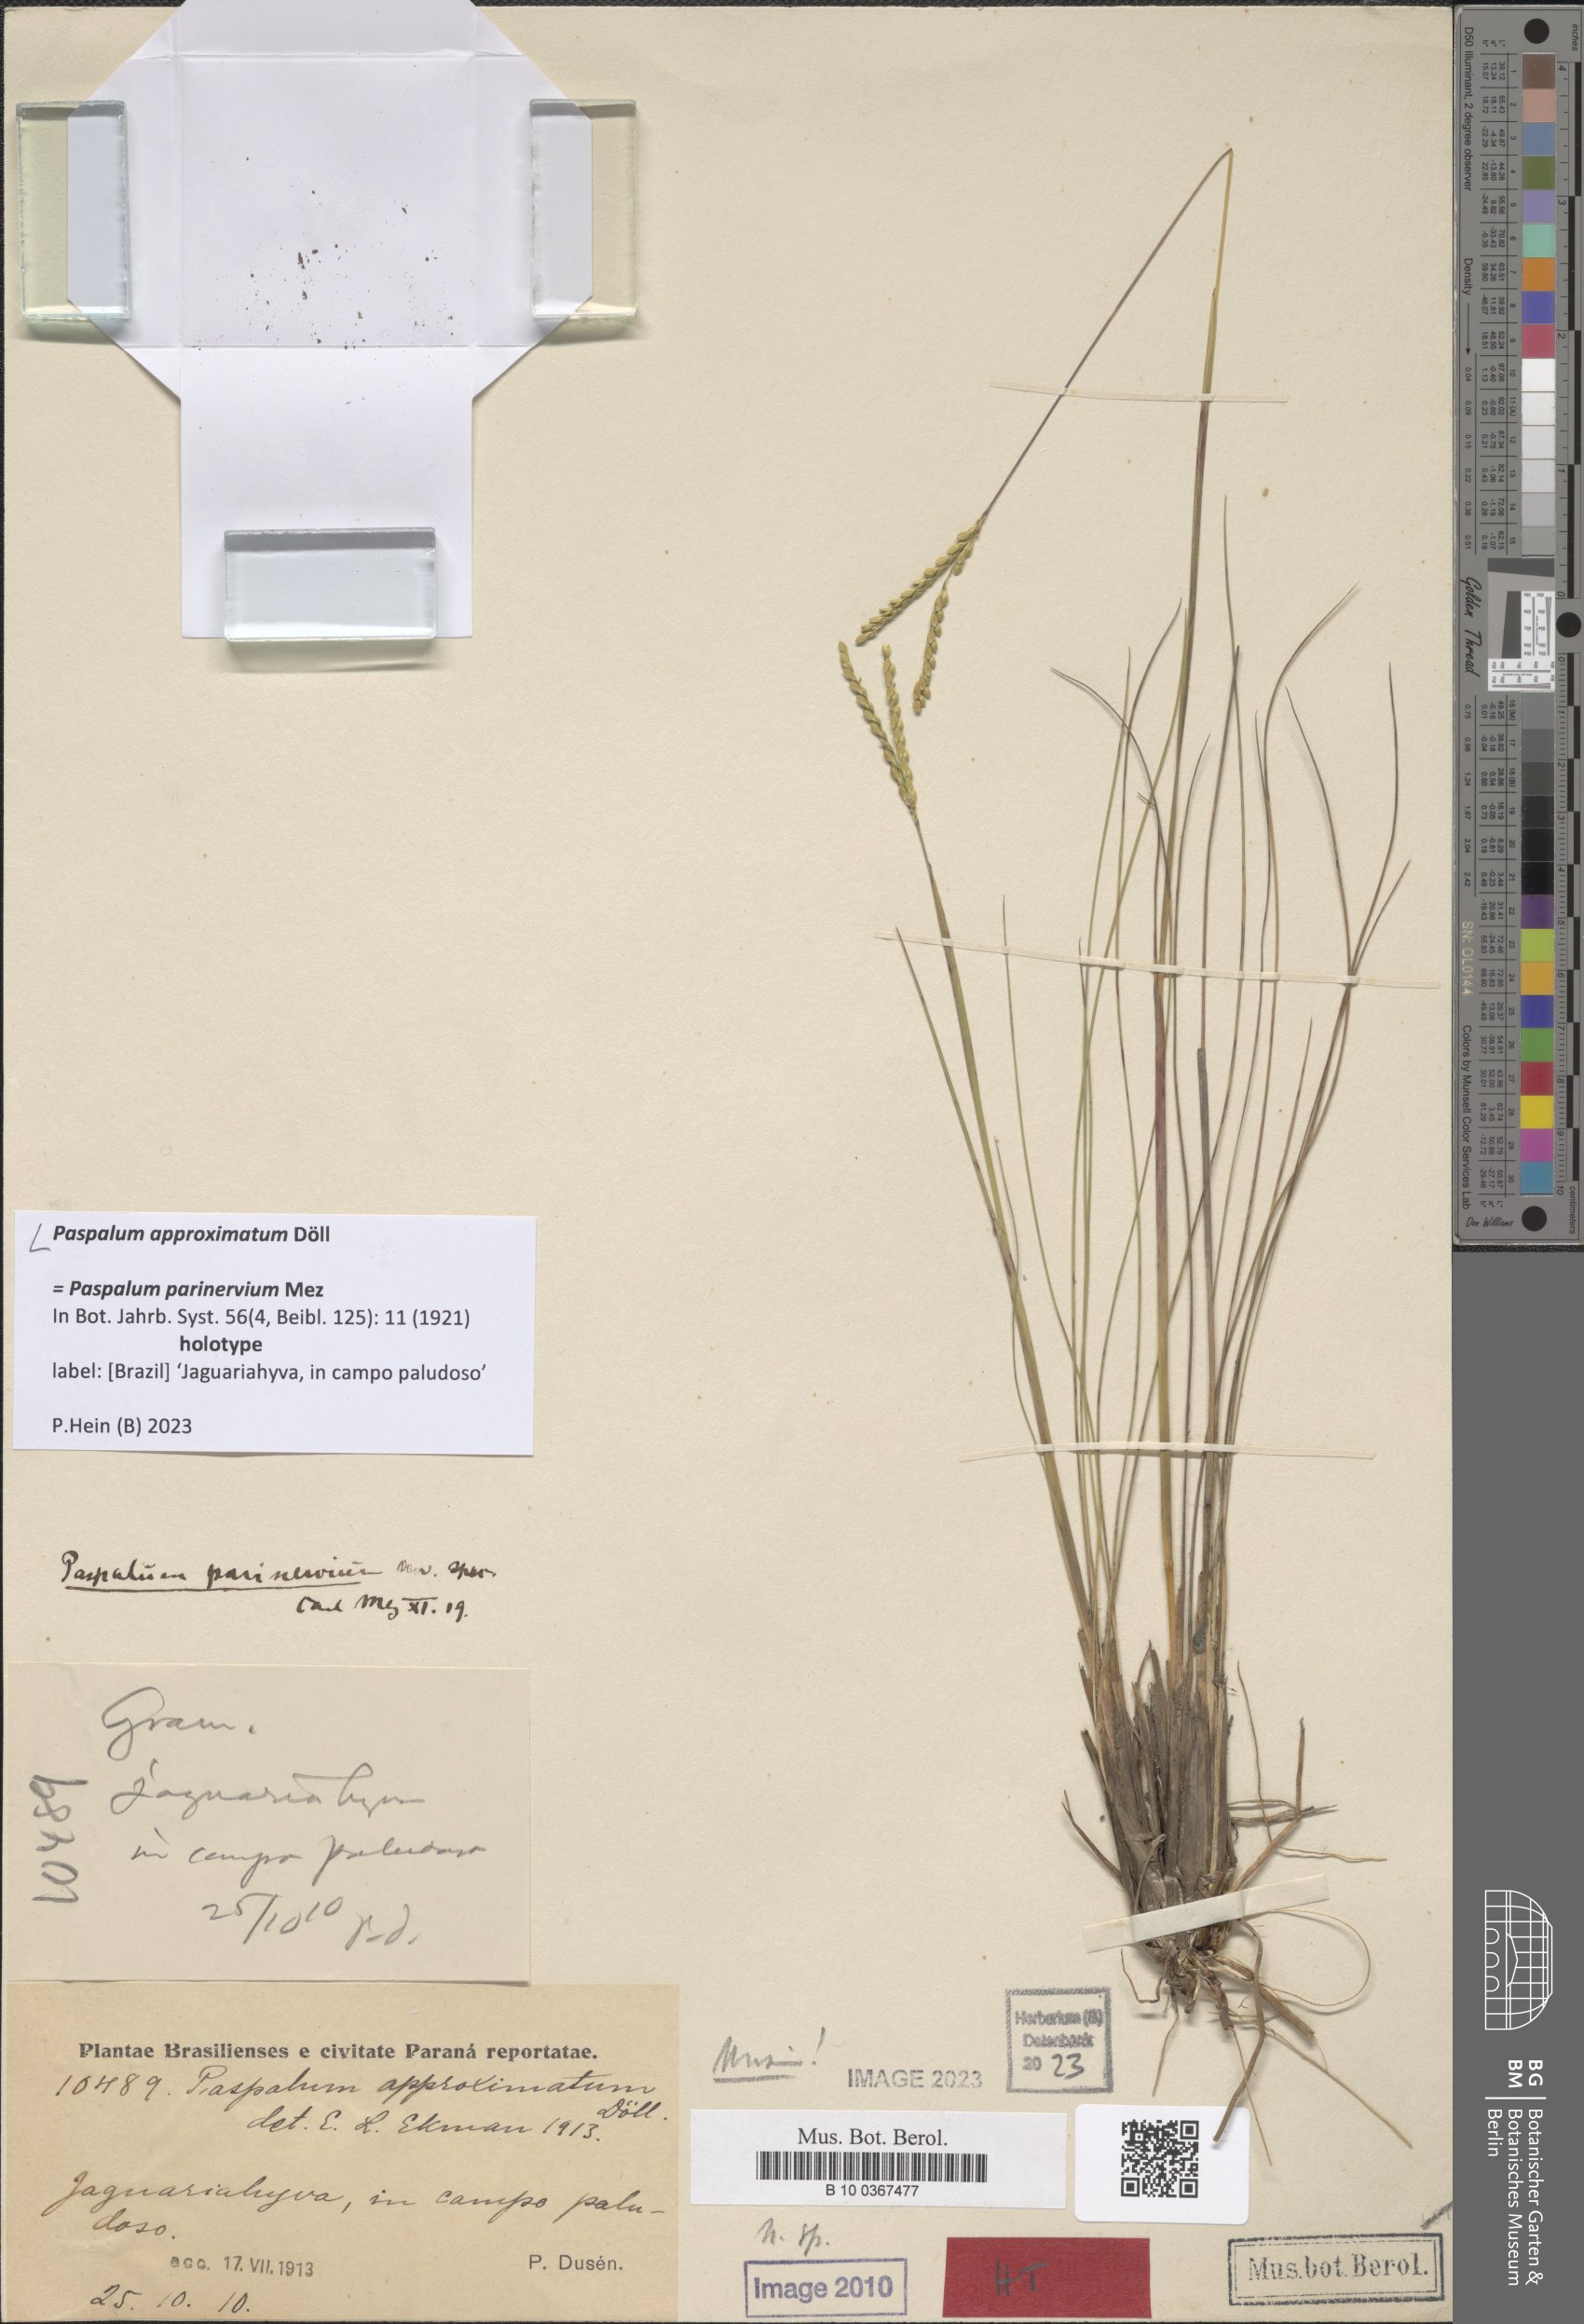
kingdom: Plantae
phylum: Tracheophyta
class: Liliopsida
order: Poales
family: Poaceae
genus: Paspalum
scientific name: Paspalum approximatum
